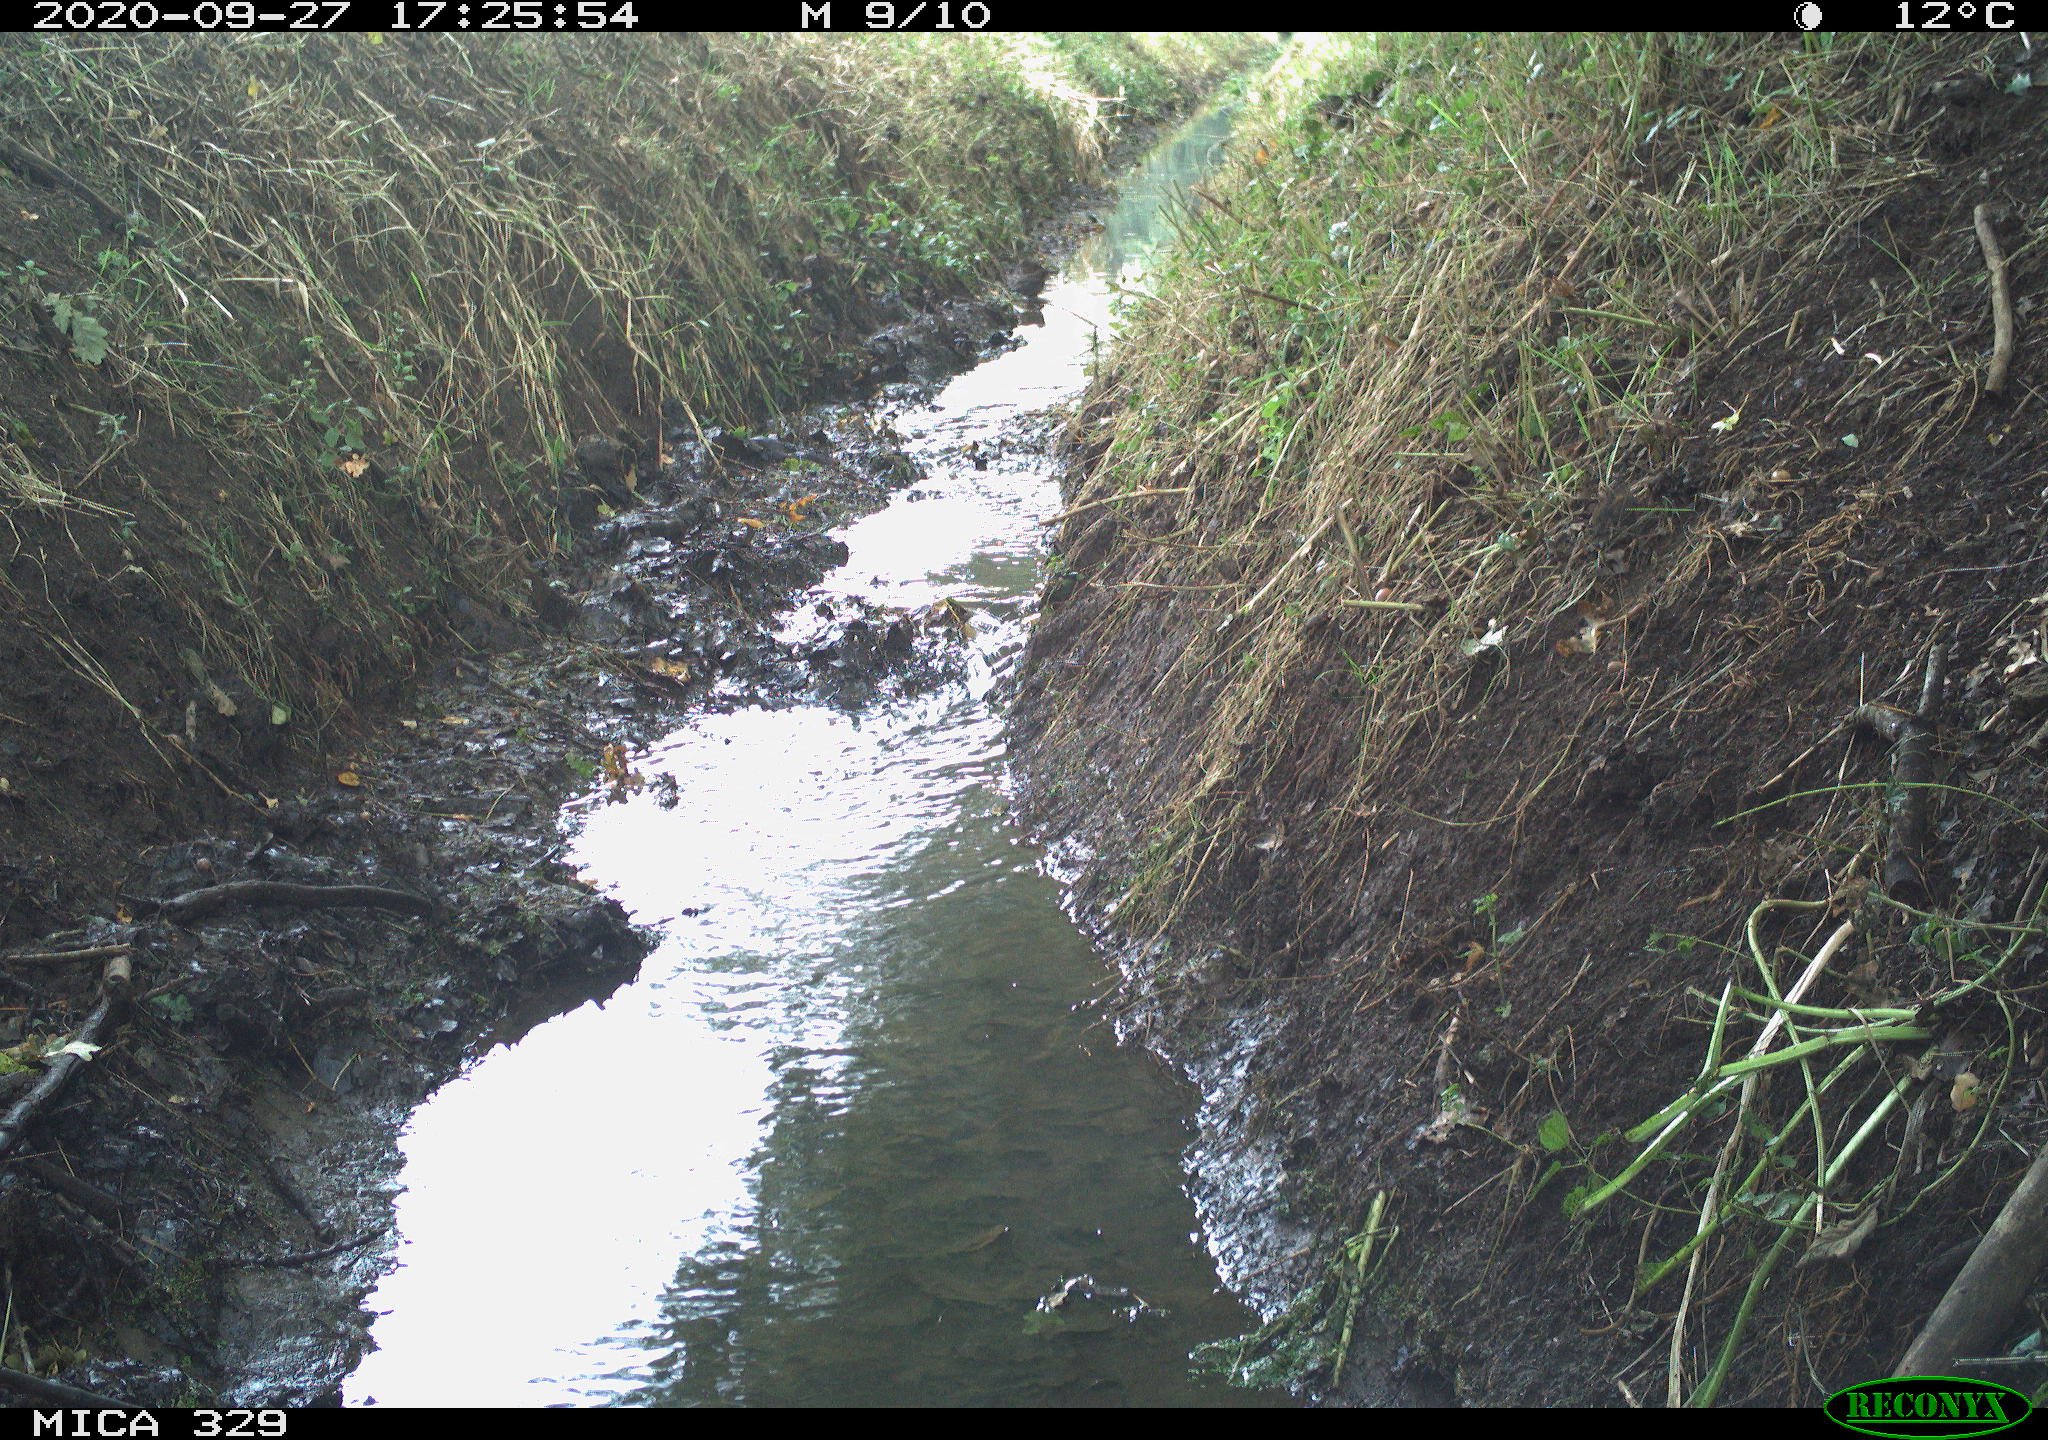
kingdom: Animalia
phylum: Chordata
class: Aves
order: Passeriformes
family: Turdidae
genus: Turdus
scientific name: Turdus merula
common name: Common blackbird
